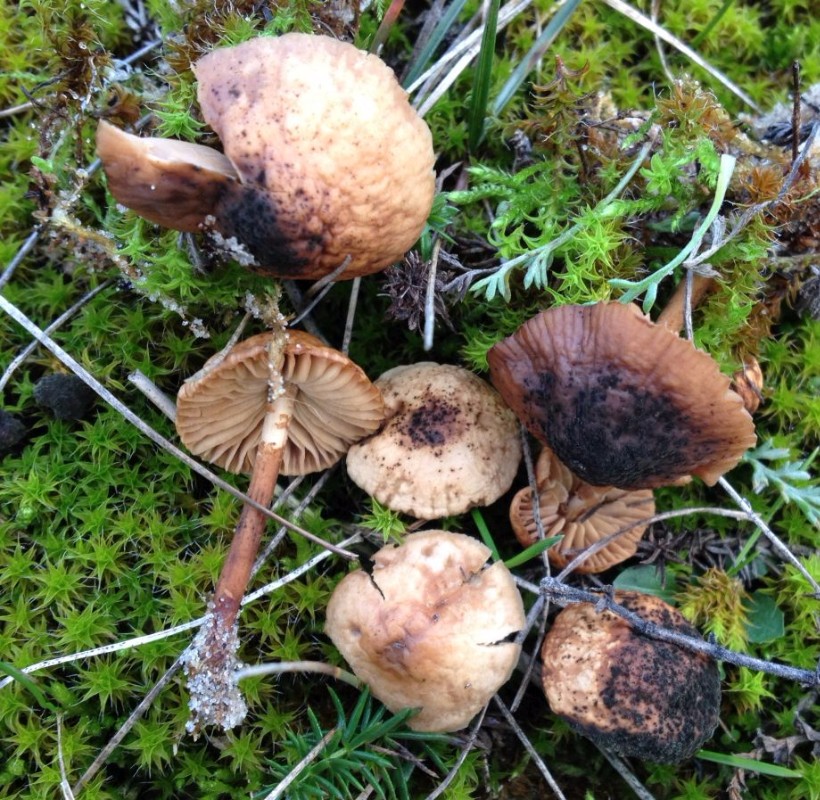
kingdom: Fungi
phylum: Basidiomycota
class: Agaricomycetes
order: Agaricales
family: Marasmiaceae
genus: Marasmius
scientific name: Marasmius oreades
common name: elledans-bruskhat
